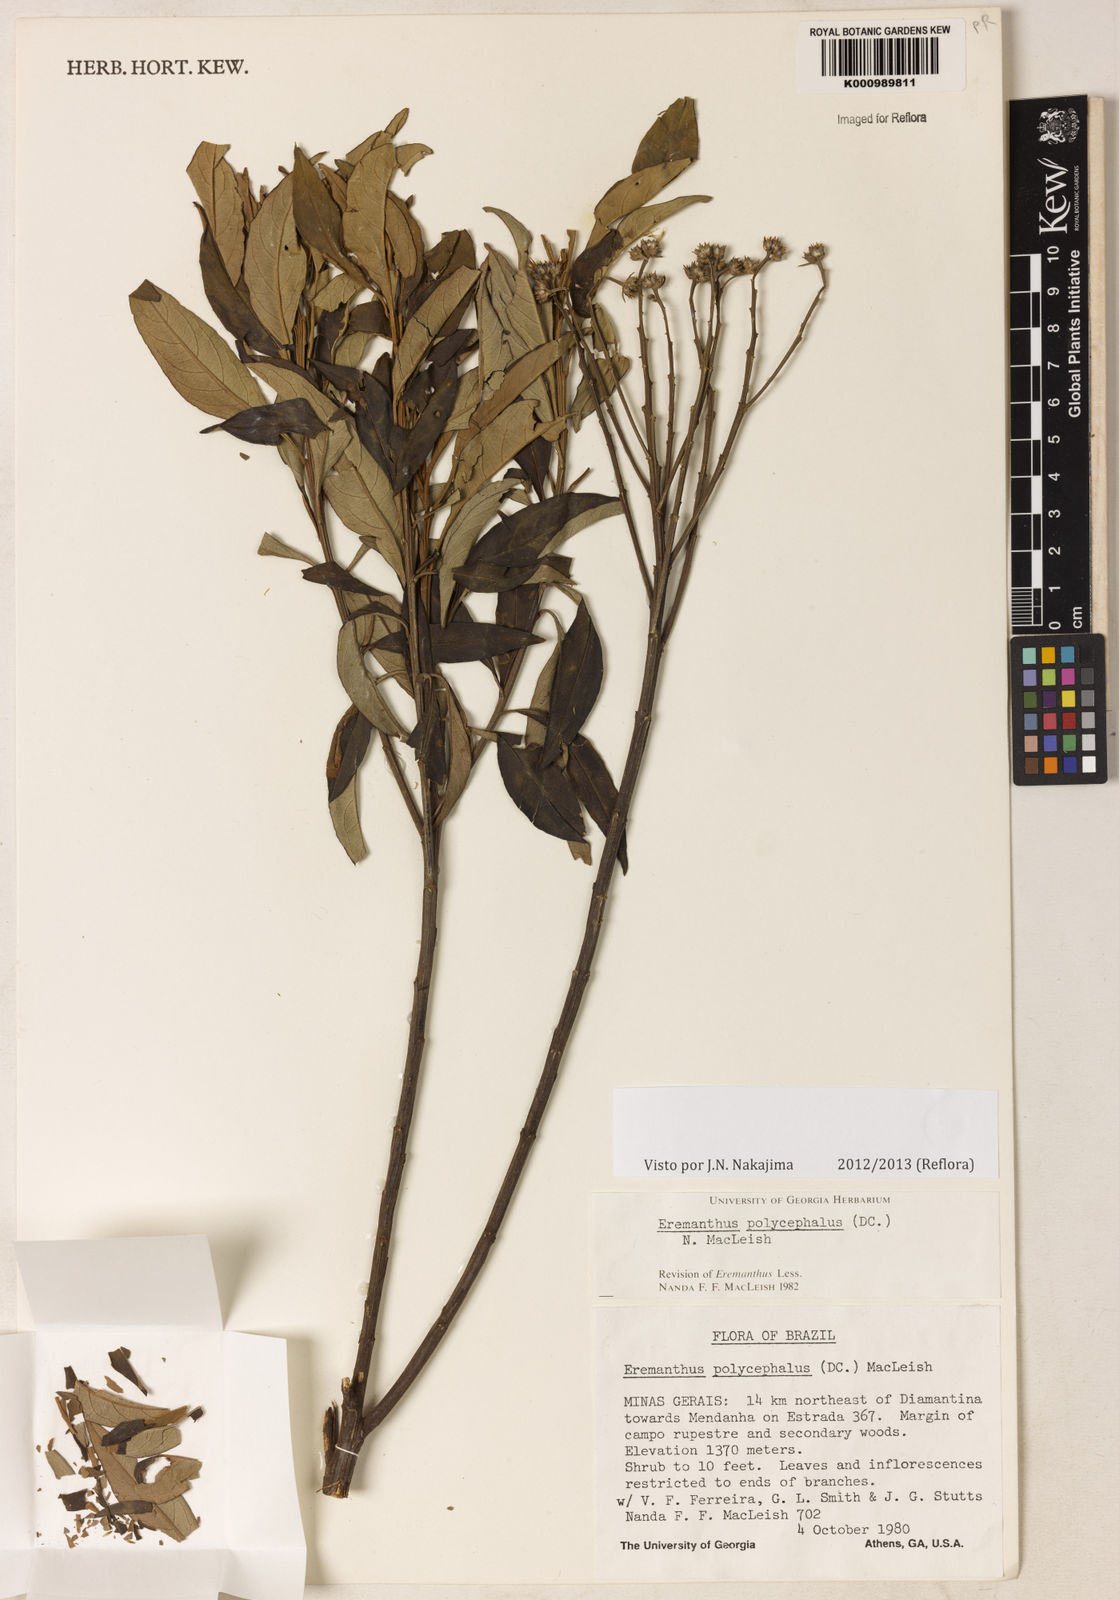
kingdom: Plantae
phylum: Tracheophyta
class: Magnoliopsida
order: Asterales
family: Asteraceae
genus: Eremanthus
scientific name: Eremanthus polycephalus
